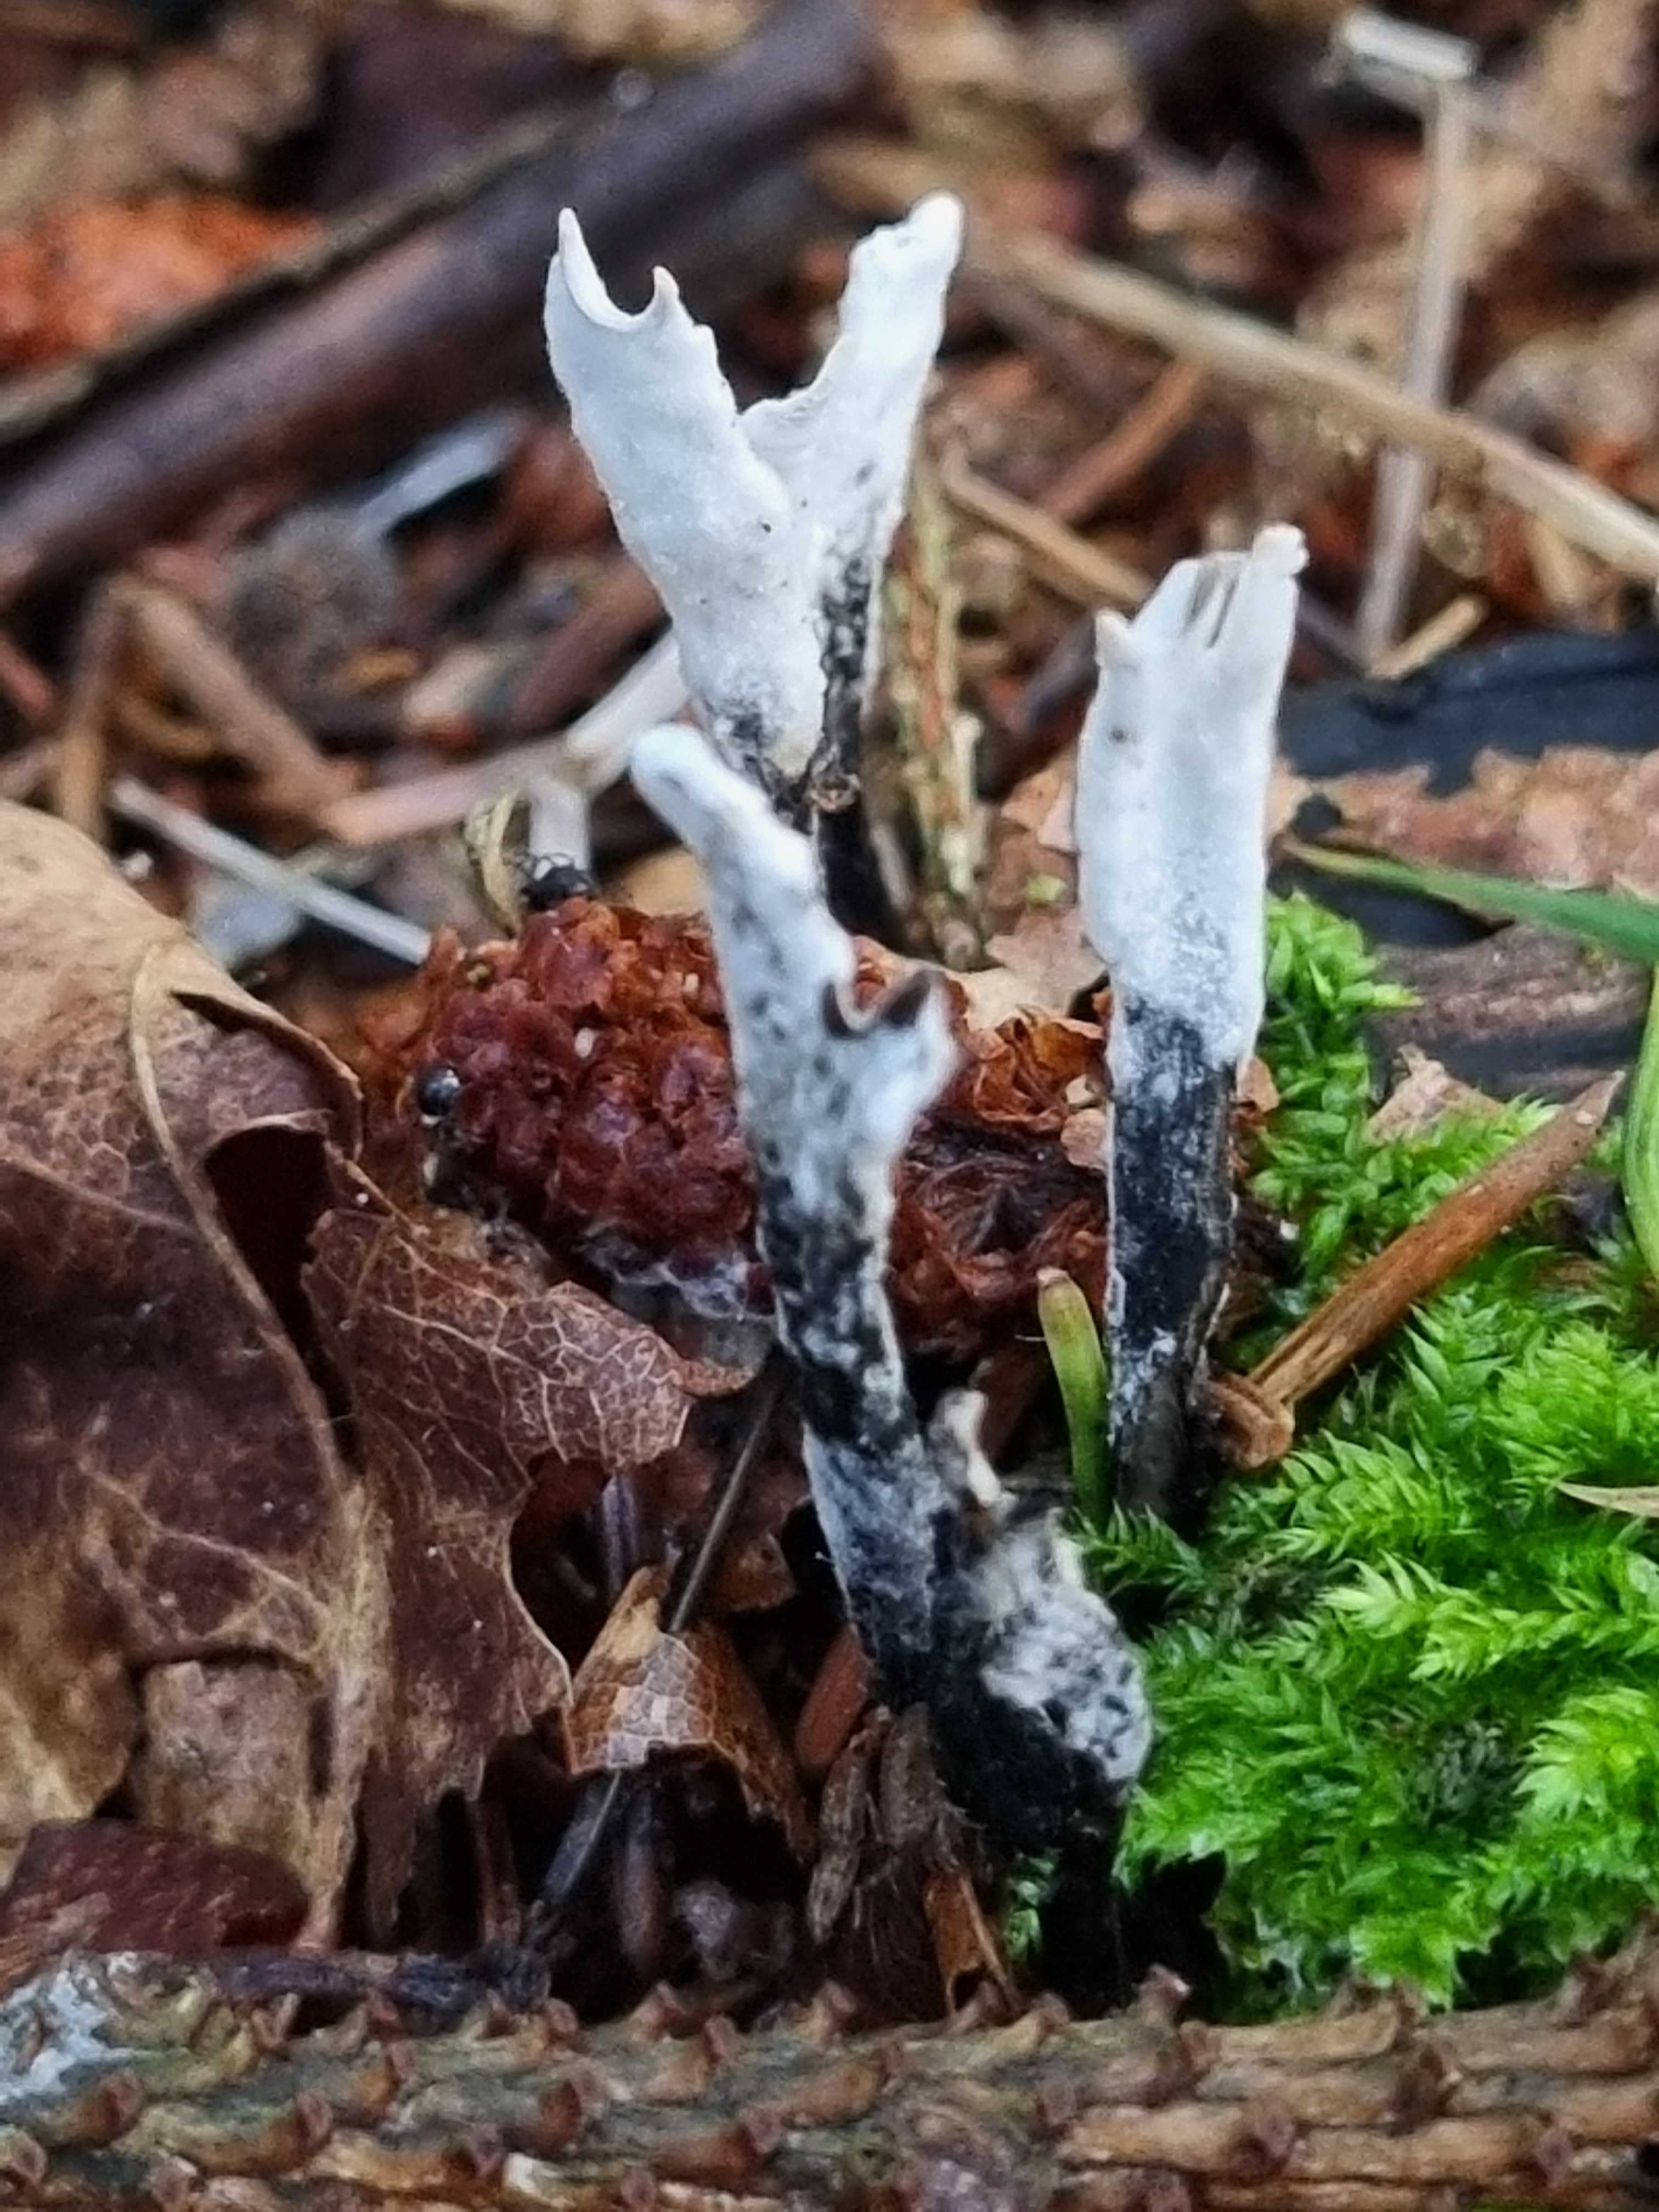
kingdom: Fungi
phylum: Ascomycota
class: Sordariomycetes
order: Xylariales
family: Xylariaceae
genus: Xylaria
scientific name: Xylaria hypoxylon
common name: grenet stødsvamp
